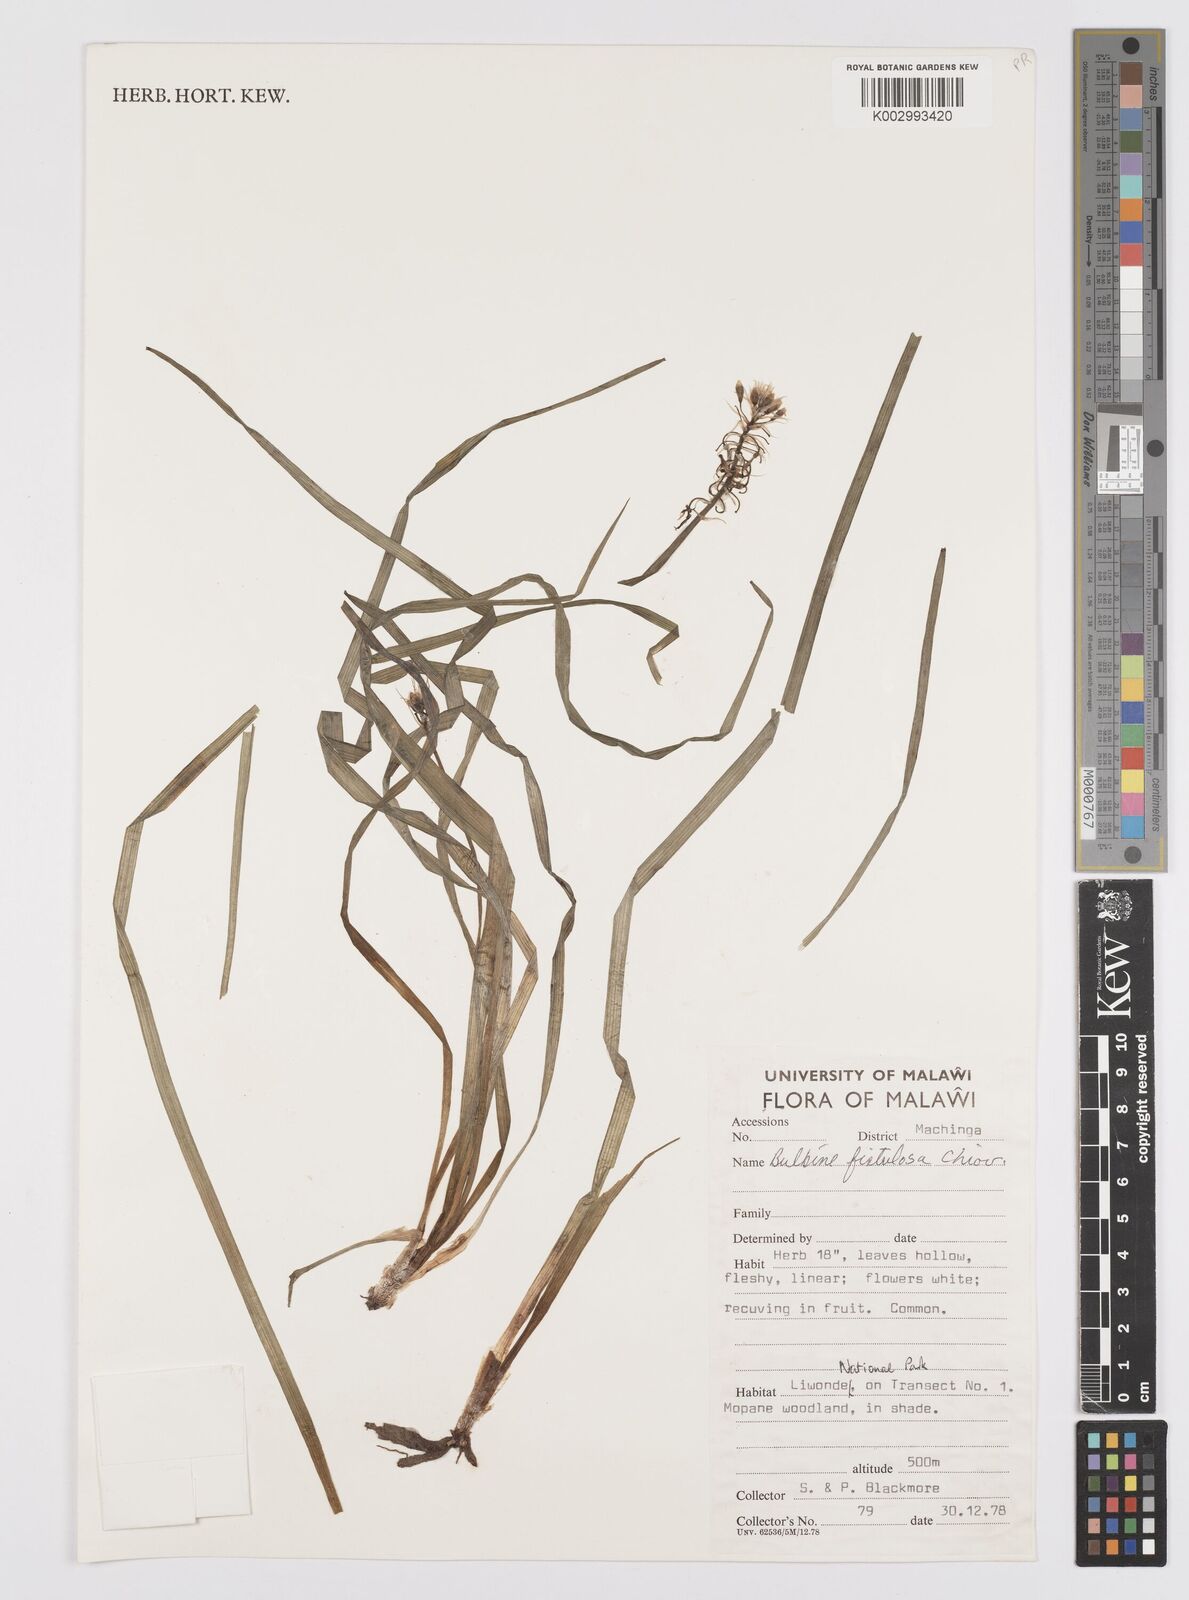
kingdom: Plantae
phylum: Tracheophyta
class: Liliopsida
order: Asparagales
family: Asphodelaceae
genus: Bulbine
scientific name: Bulbine fistulosa
